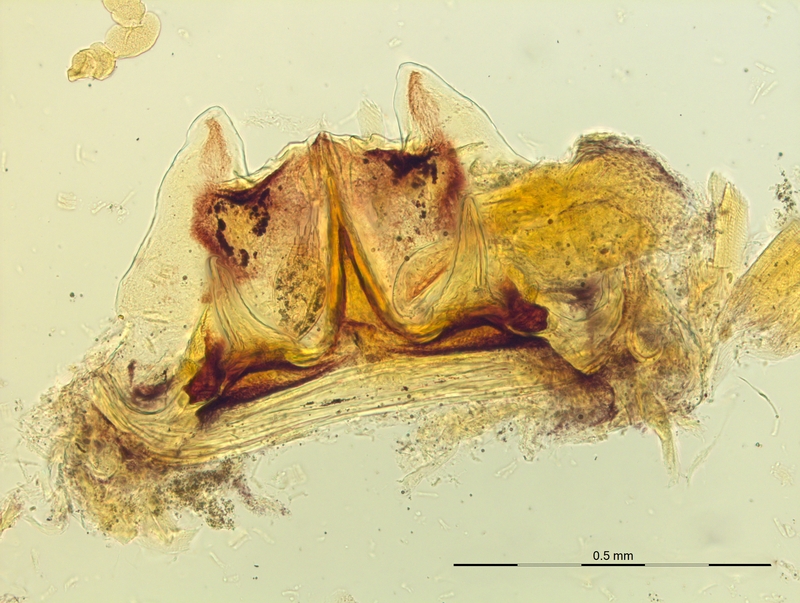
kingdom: Animalia
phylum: Arthropoda
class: Diplopoda
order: Chordeumatida
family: Craspedosomatidae
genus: Craspedosoma
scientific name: Craspedosoma transsilvanicum
